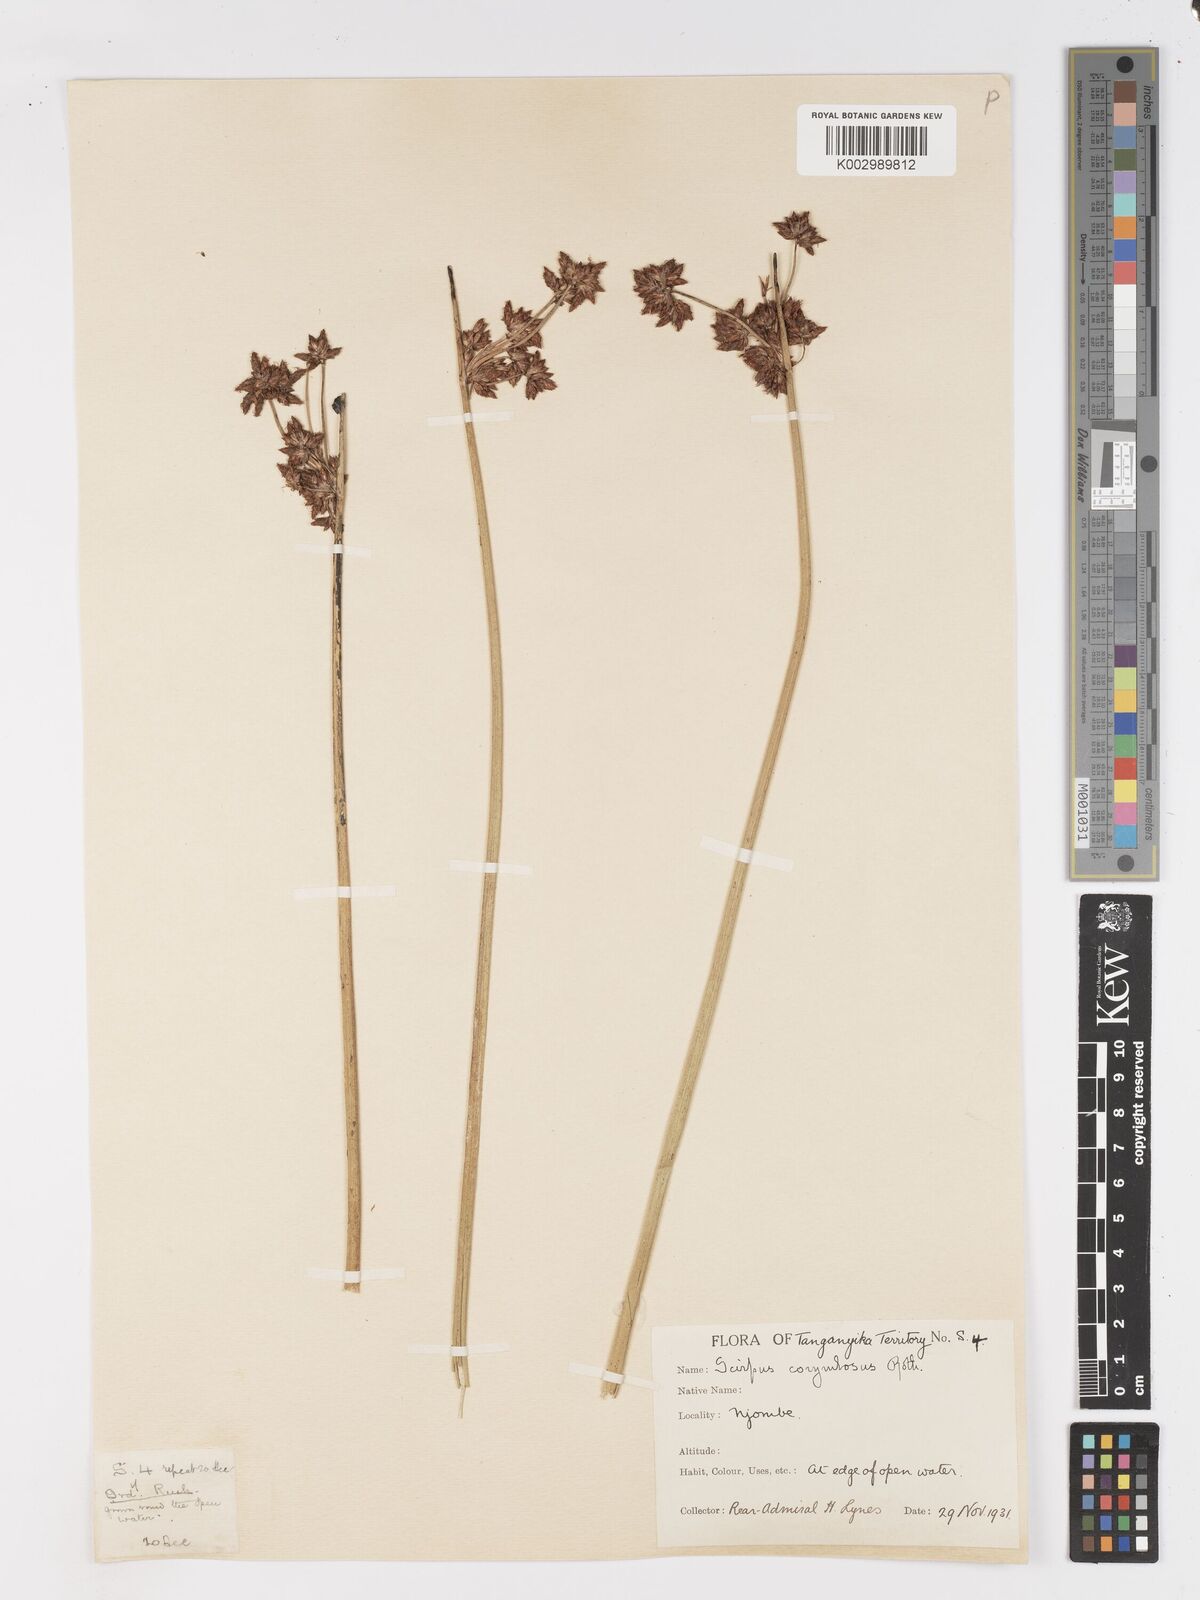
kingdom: Plantae
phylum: Tracheophyta
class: Liliopsida
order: Poales
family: Cyperaceae
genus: Schoenoplectiella
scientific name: Schoenoplectiella brachyceras
